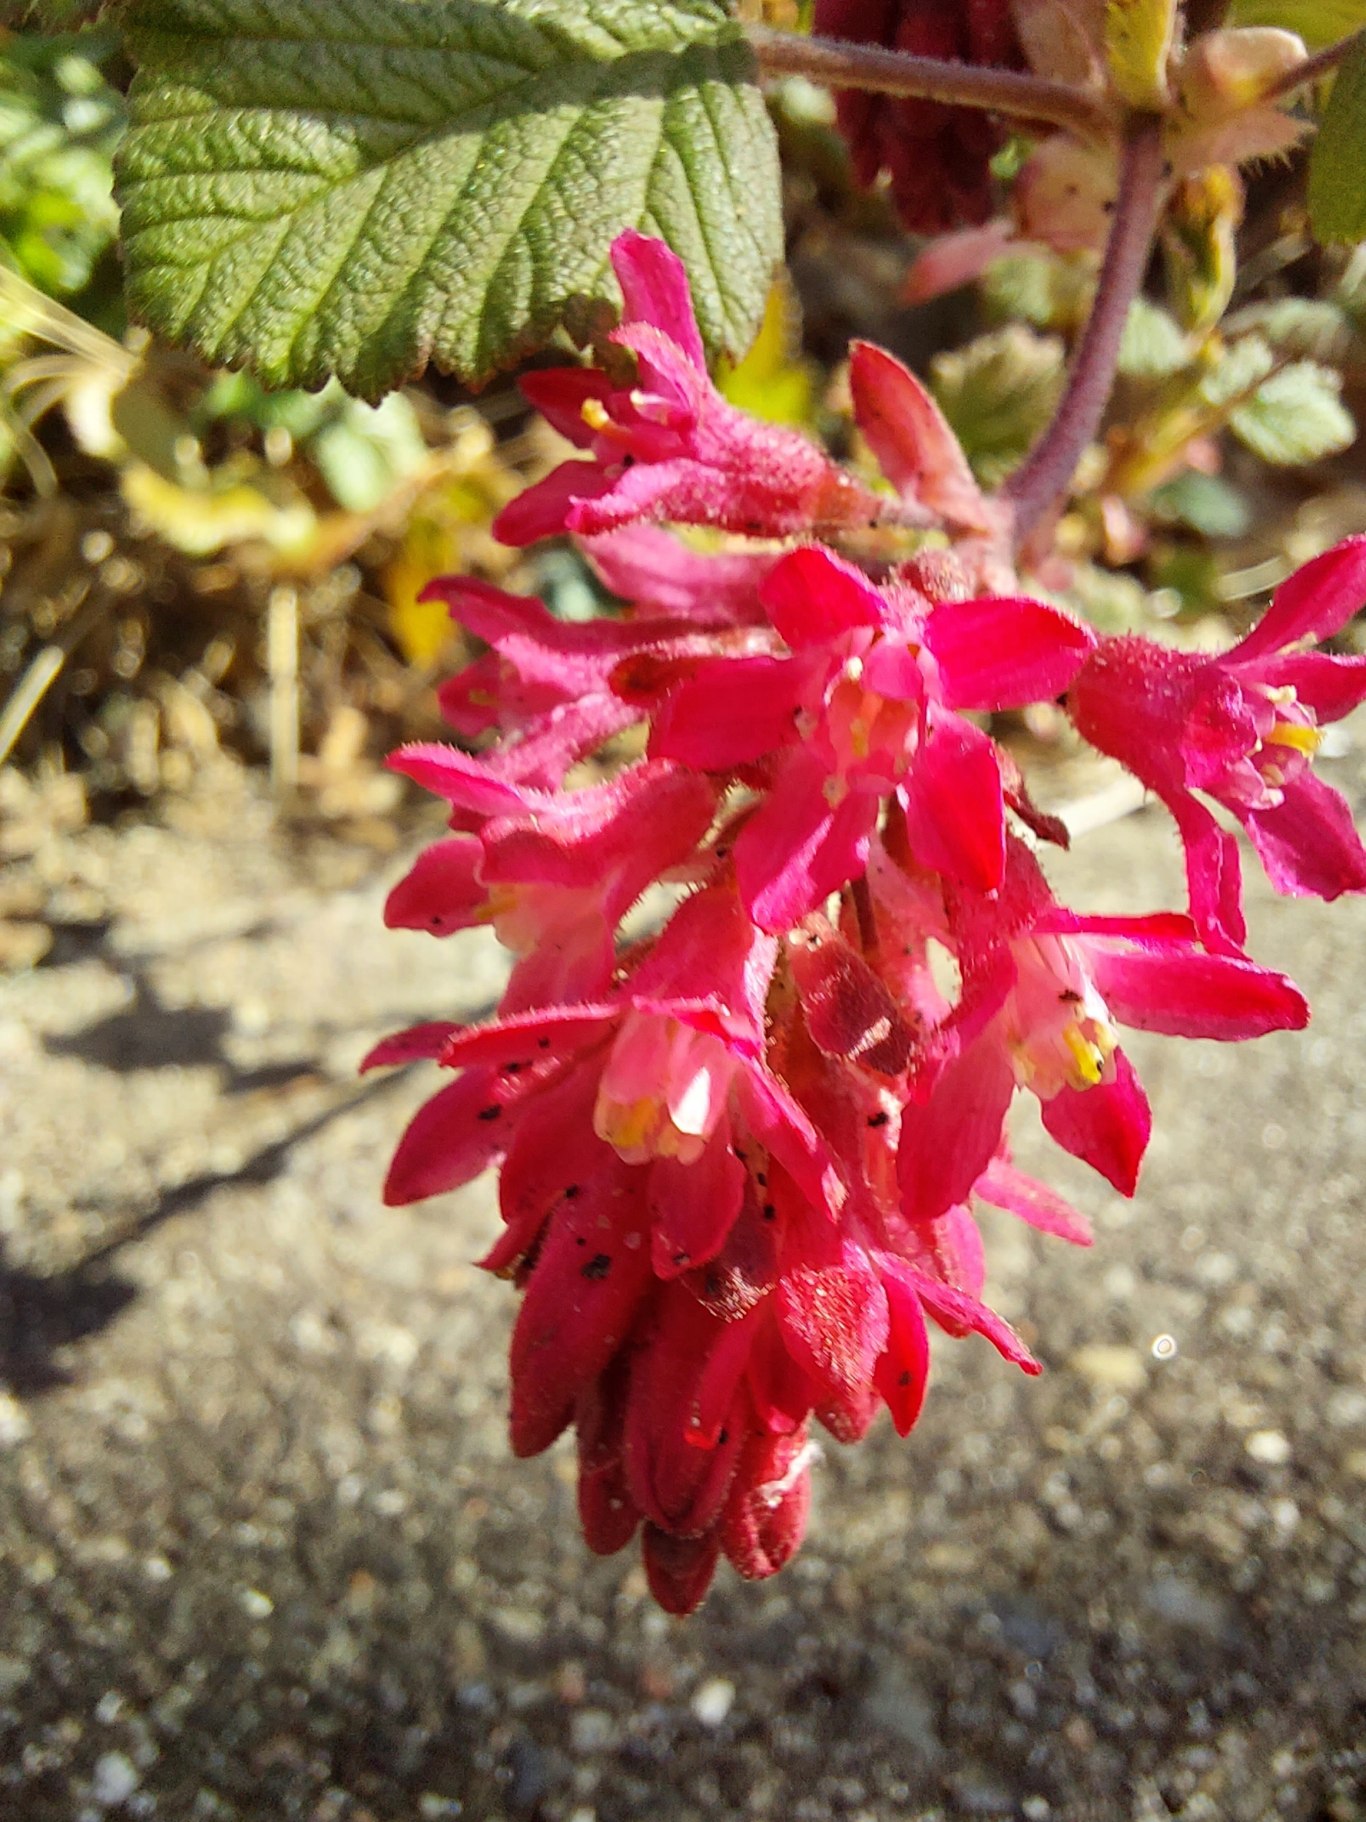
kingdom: Plantae
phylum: Tracheophyta
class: Magnoliopsida
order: Saxifragales
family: Grossulariaceae
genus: Ribes
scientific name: Ribes sanguineum
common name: Blod-ribs
